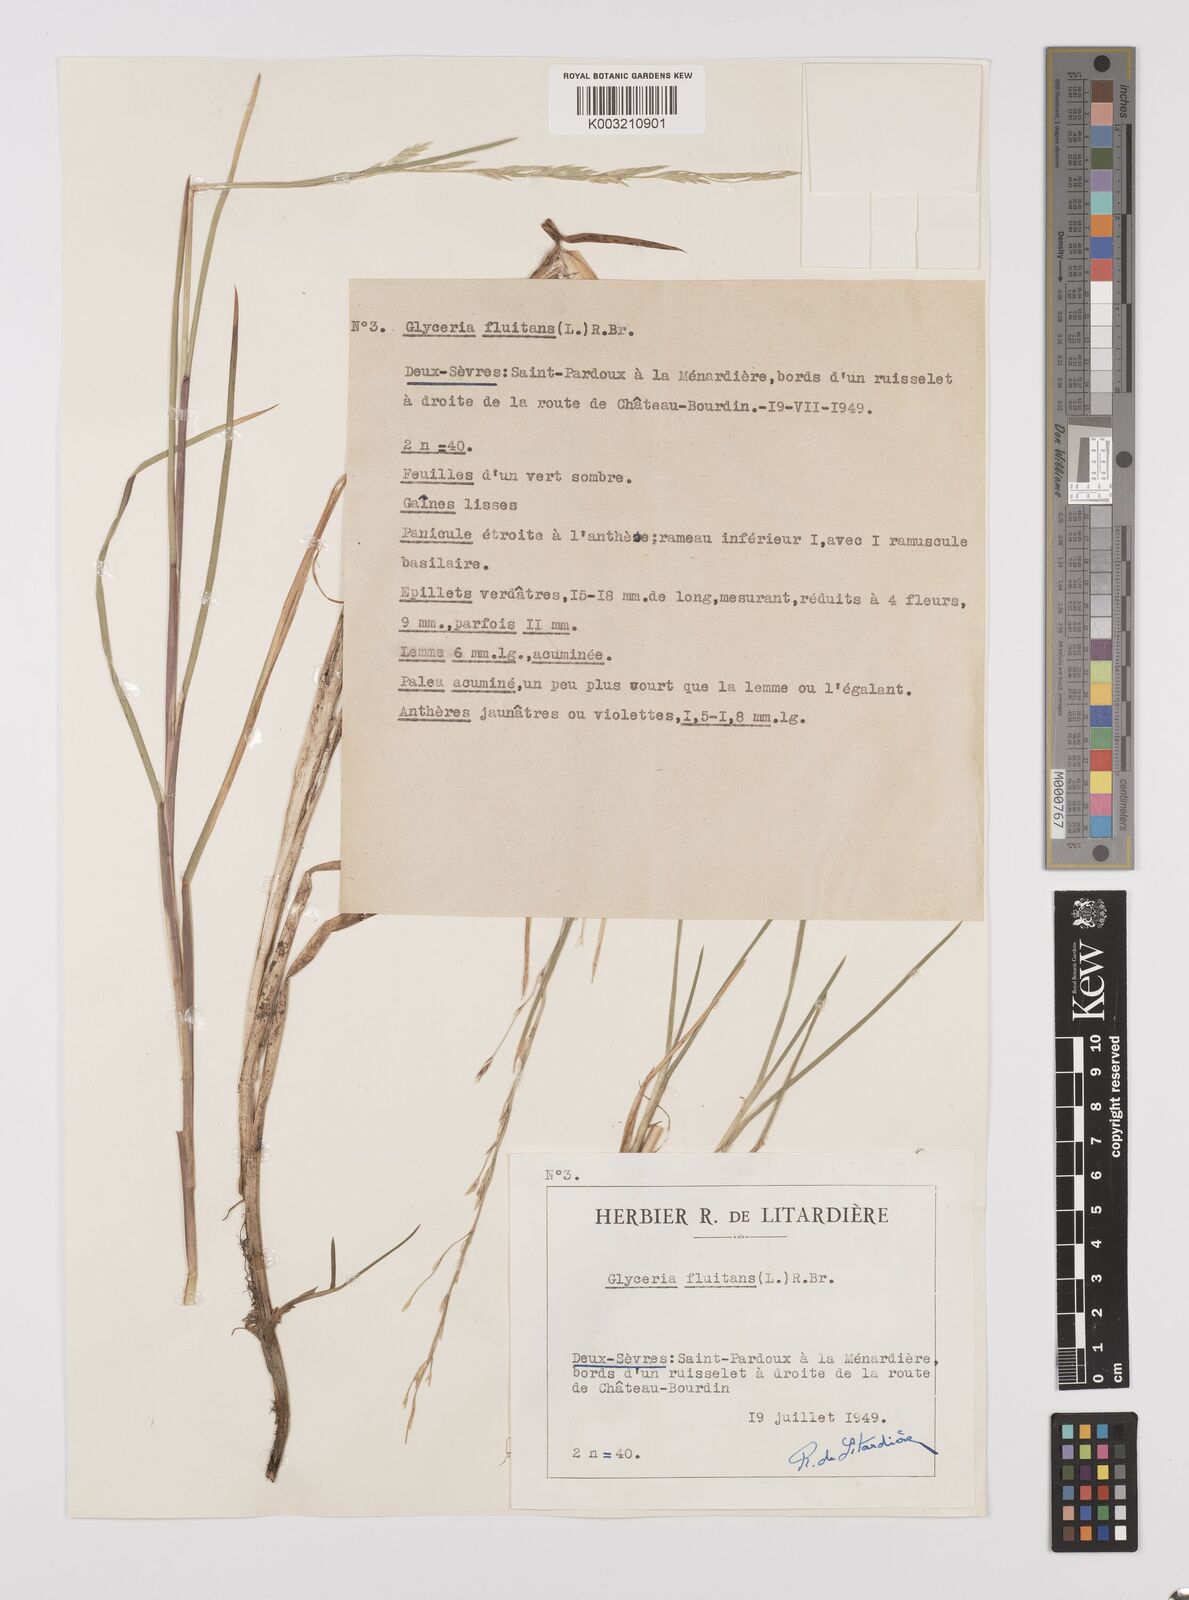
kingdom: Plantae
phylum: Tracheophyta
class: Liliopsida
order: Poales
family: Poaceae
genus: Glyceria
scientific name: Glyceria fluitans
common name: Floating sweet-grass
